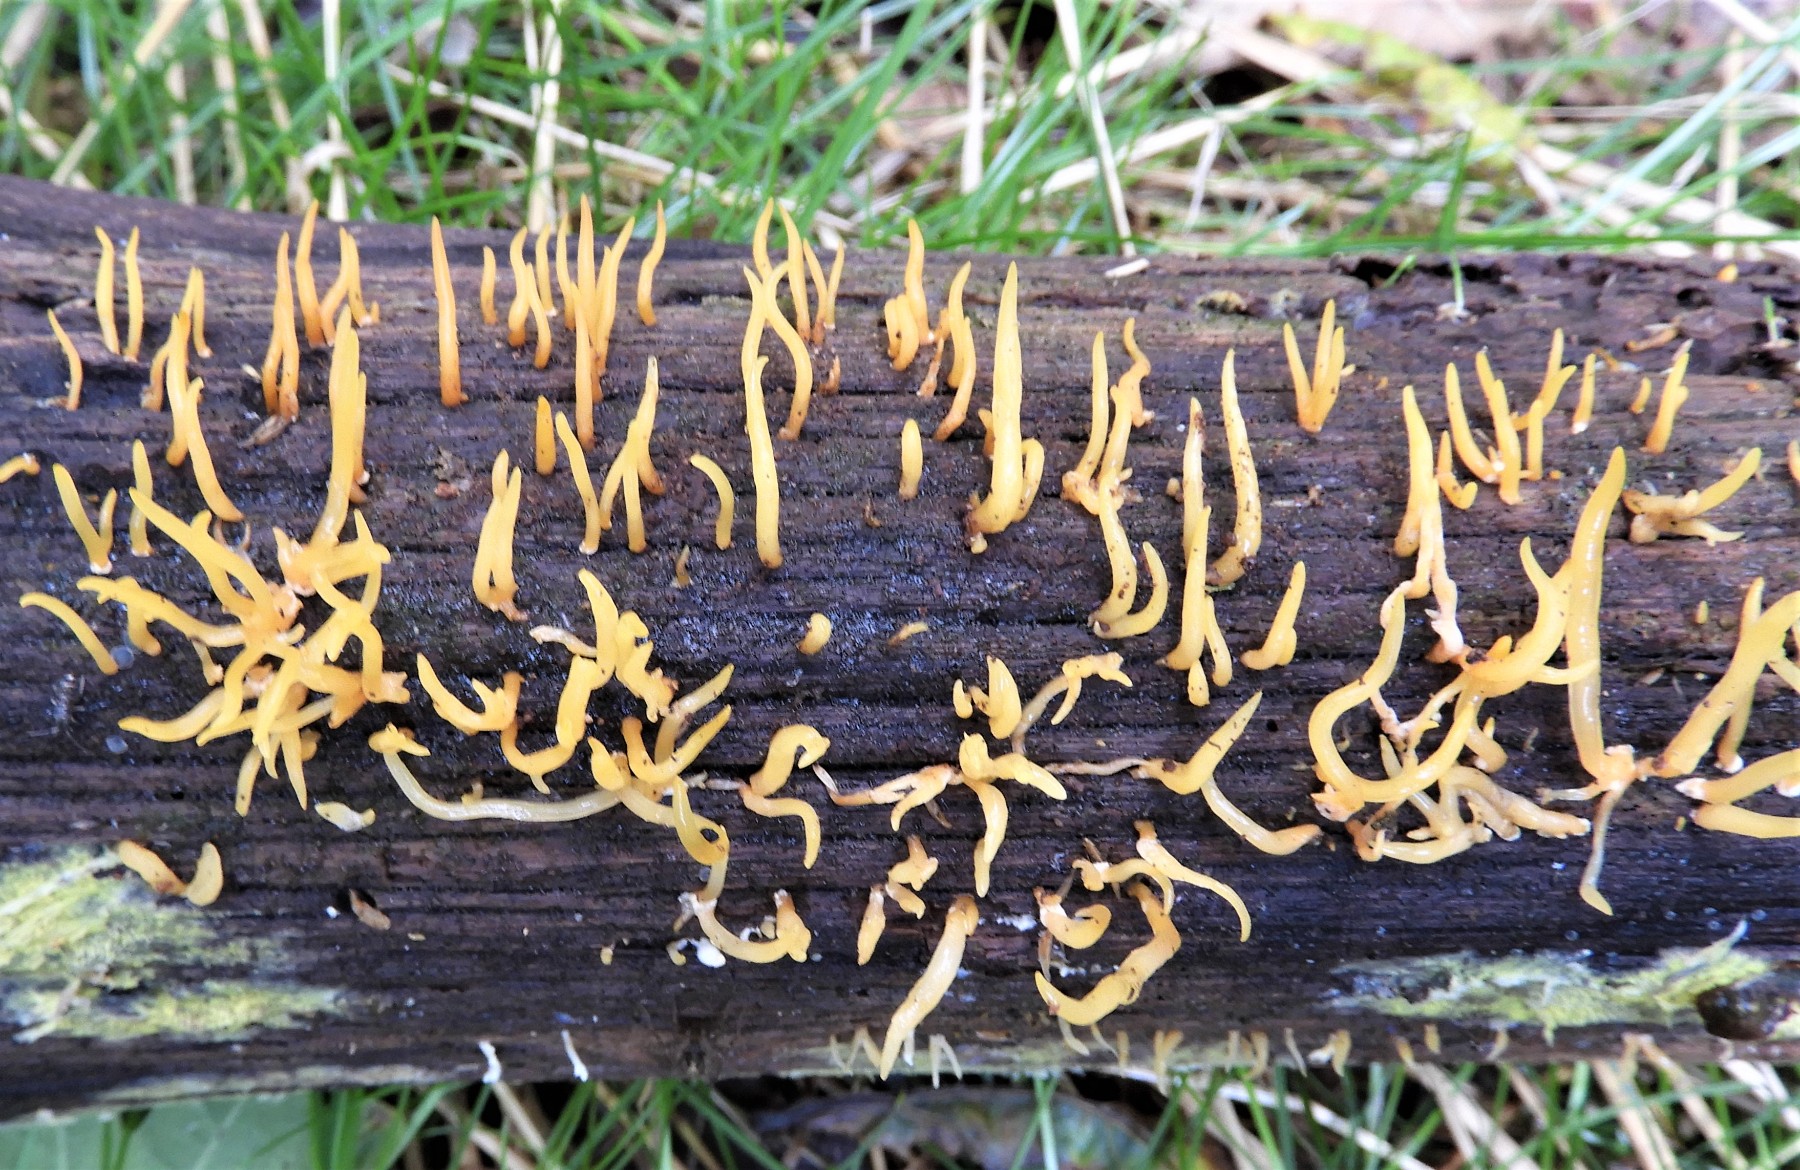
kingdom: Fungi
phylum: Basidiomycota
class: Dacrymycetes
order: Dacrymycetales
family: Dacrymycetaceae
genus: Calocera
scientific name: Calocera cornea
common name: liden guldgaffel
